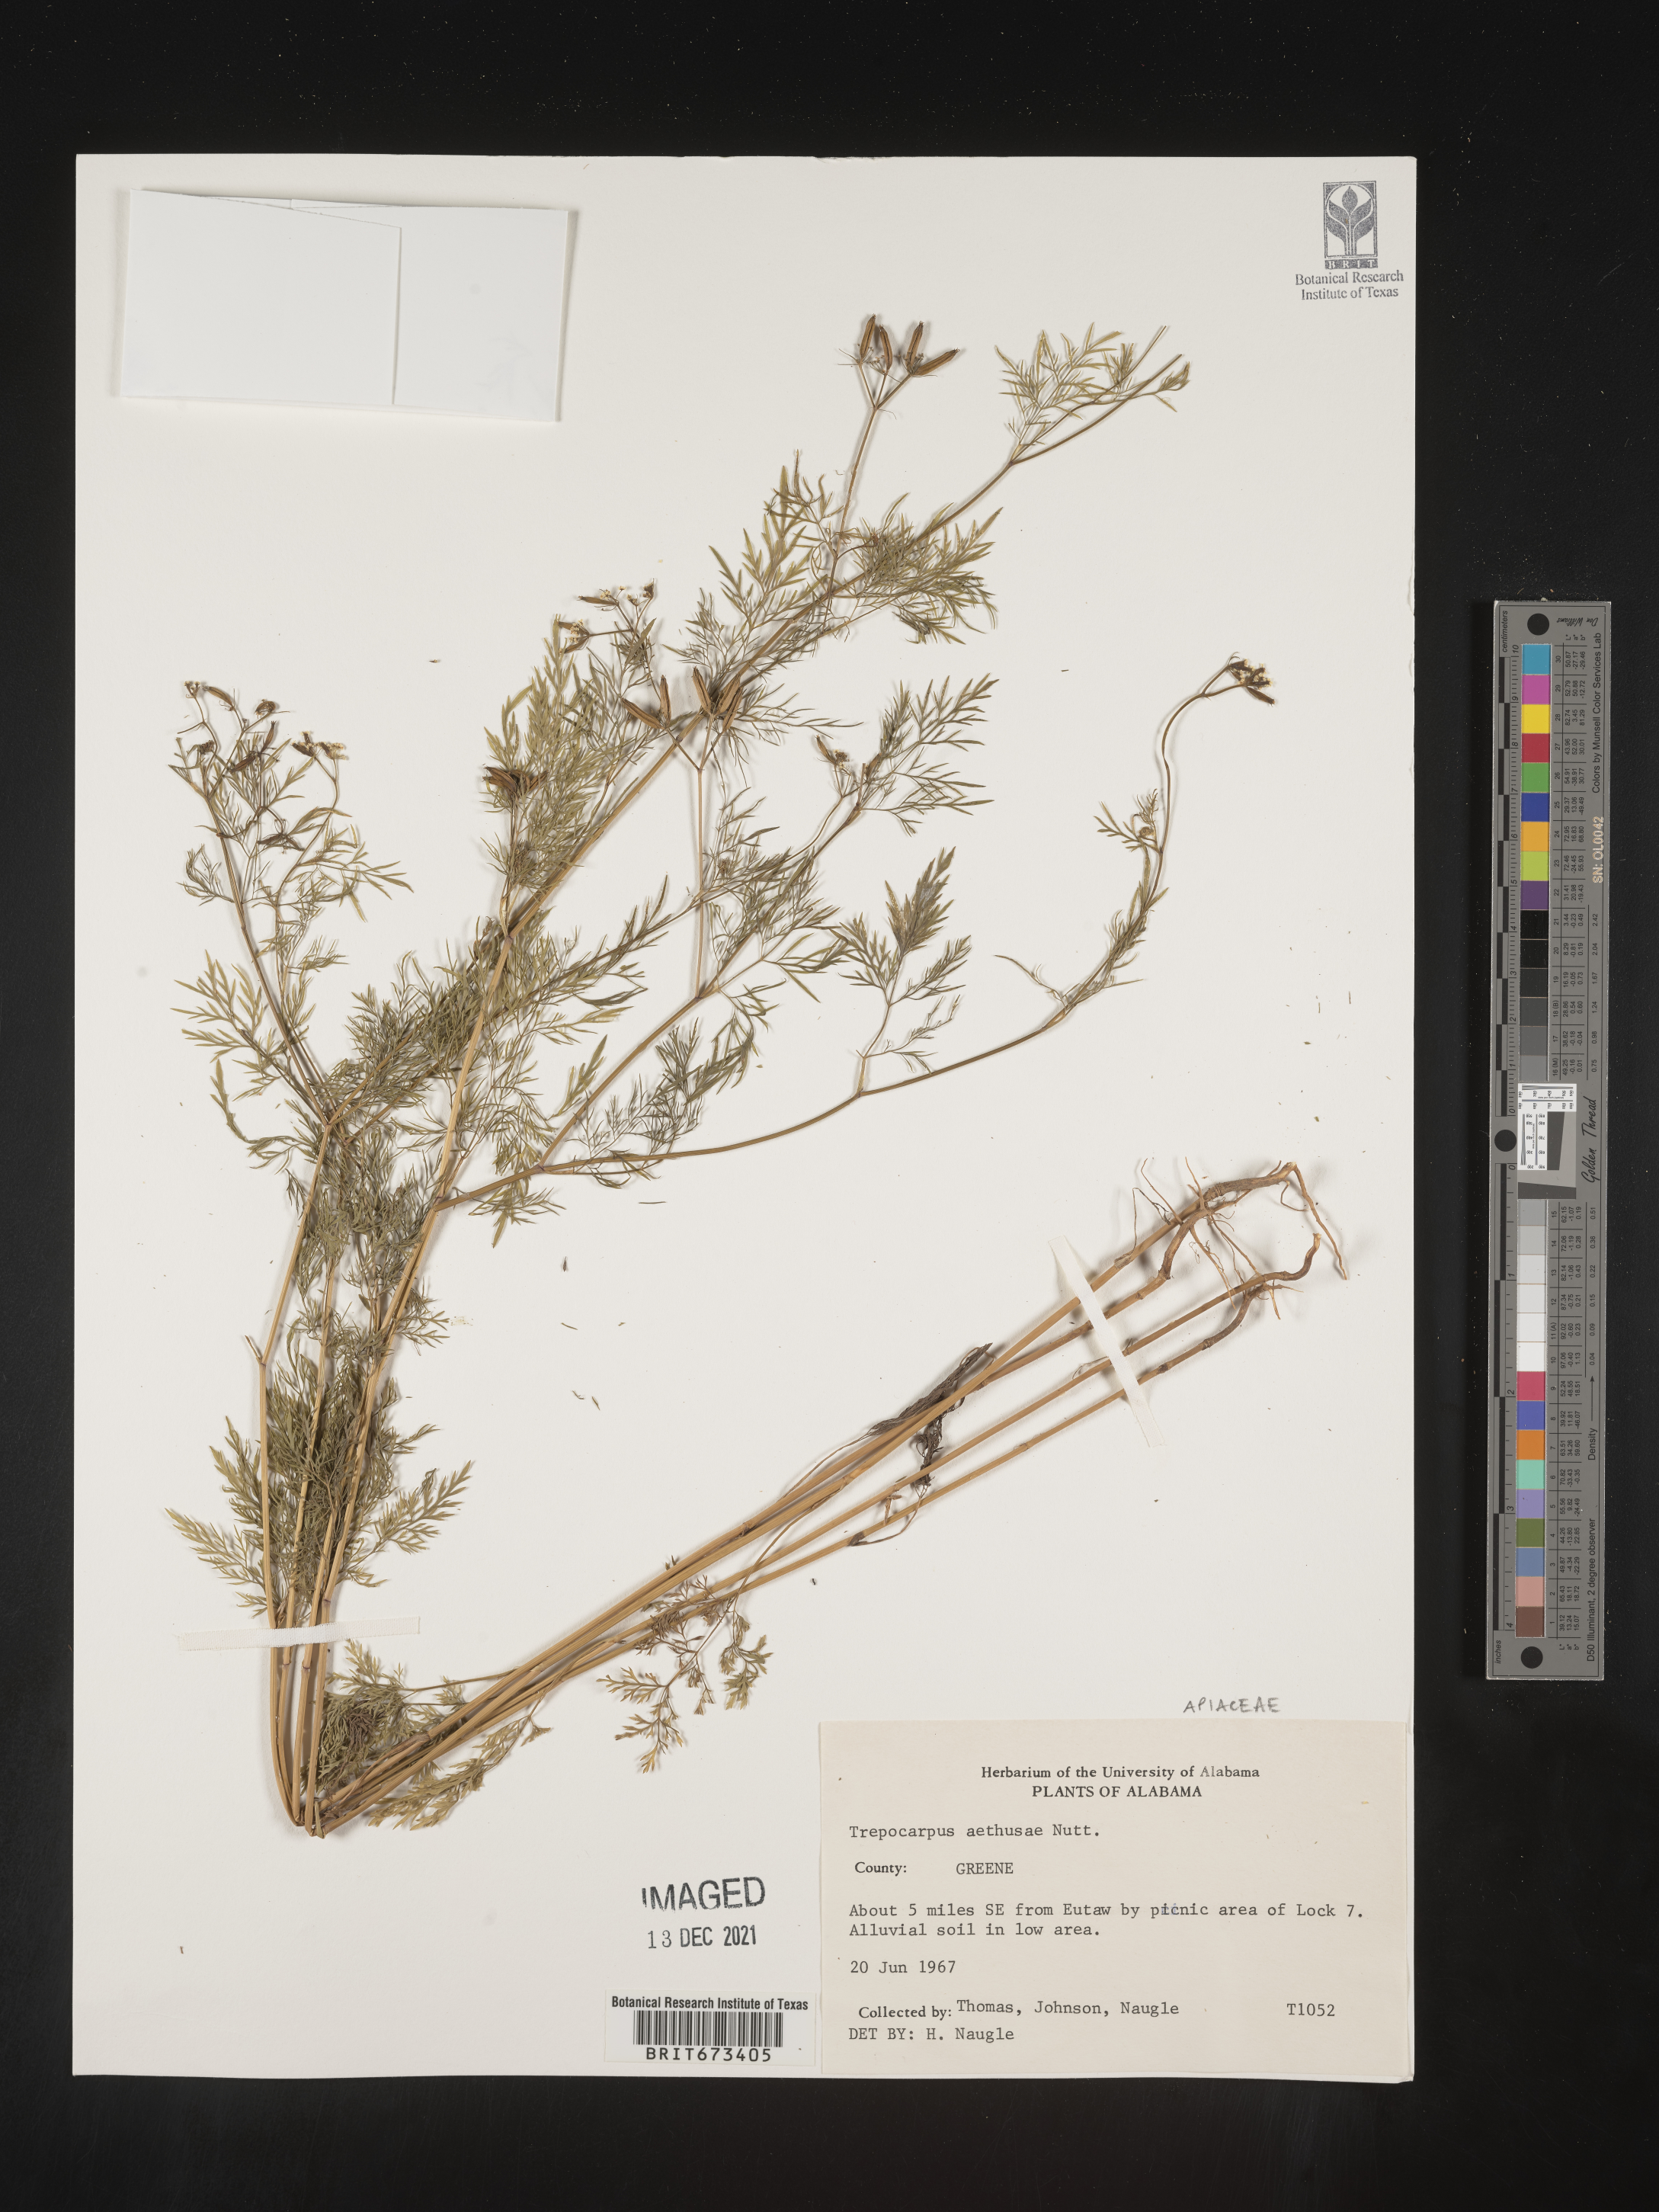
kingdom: Plantae
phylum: Tracheophyta
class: Magnoliopsida
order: Apiales
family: Apiaceae
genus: Trepocarpus
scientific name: Trepocarpus aethusae
